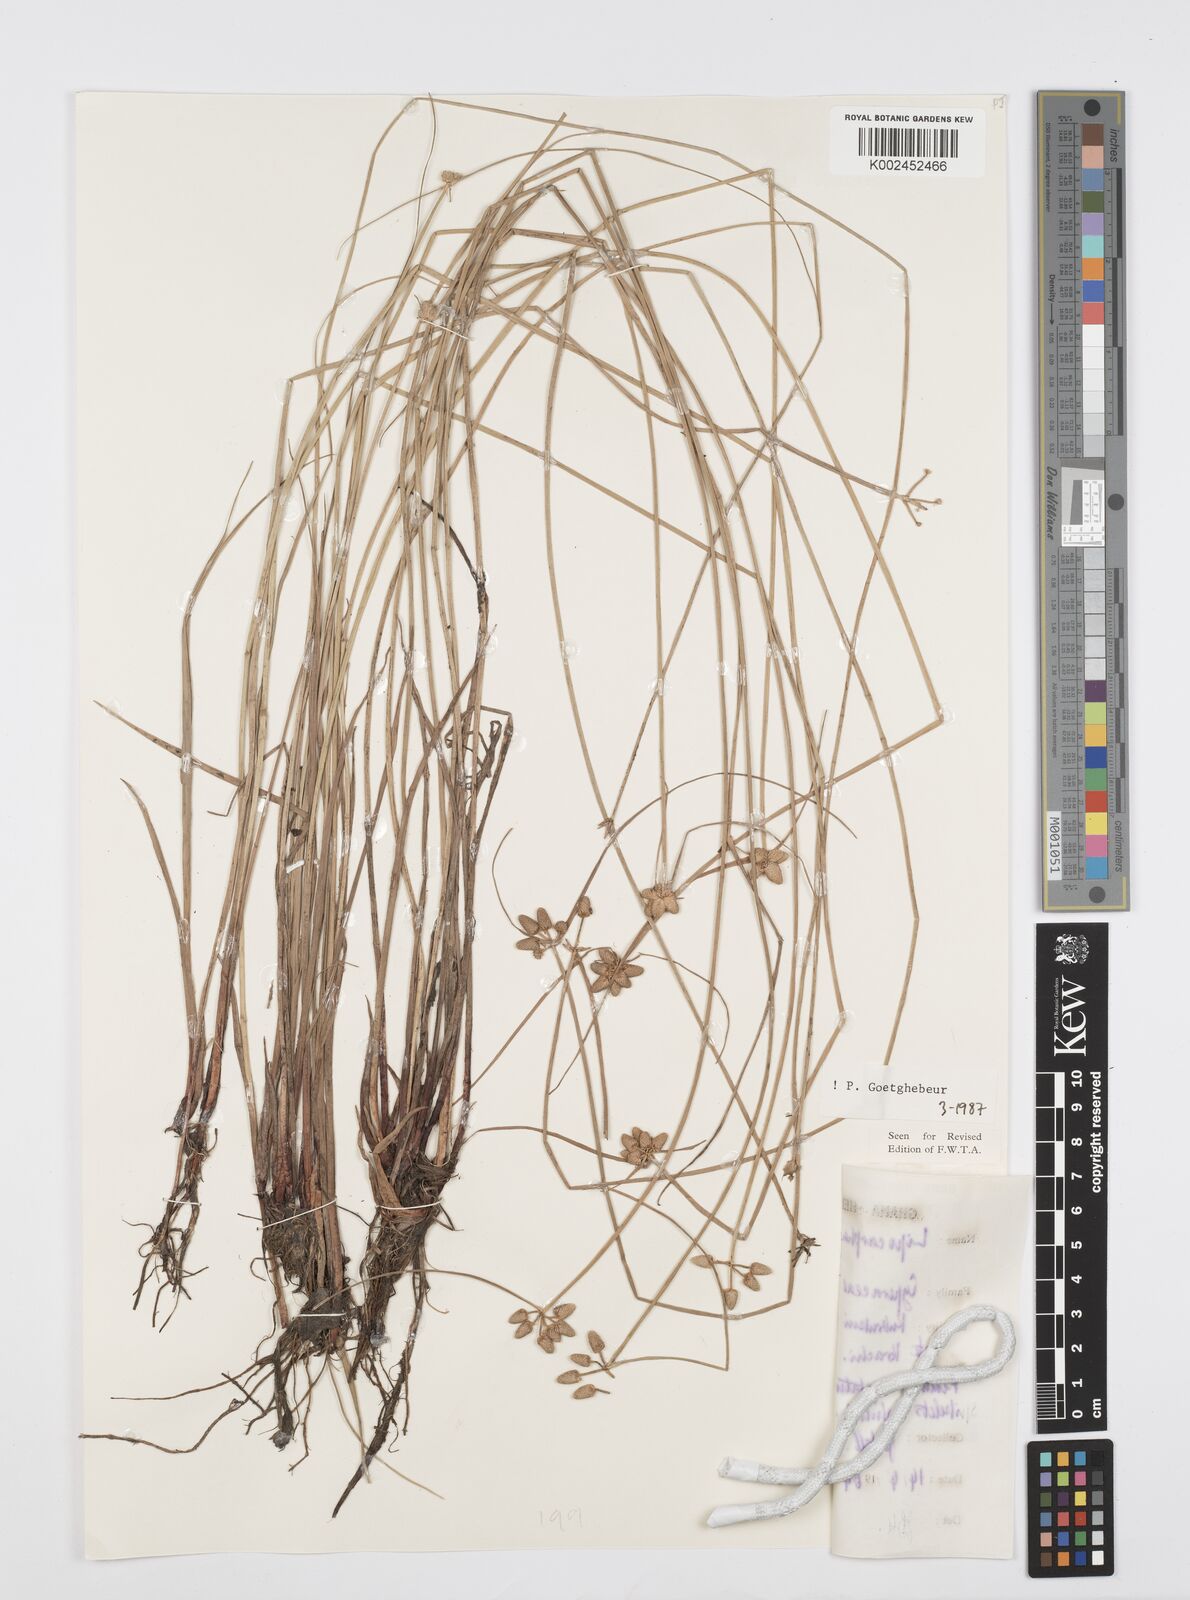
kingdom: Plantae
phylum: Tracheophyta
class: Liliopsida
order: Poales
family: Cyperaceae
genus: Cyperus
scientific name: Cyperus albescens
